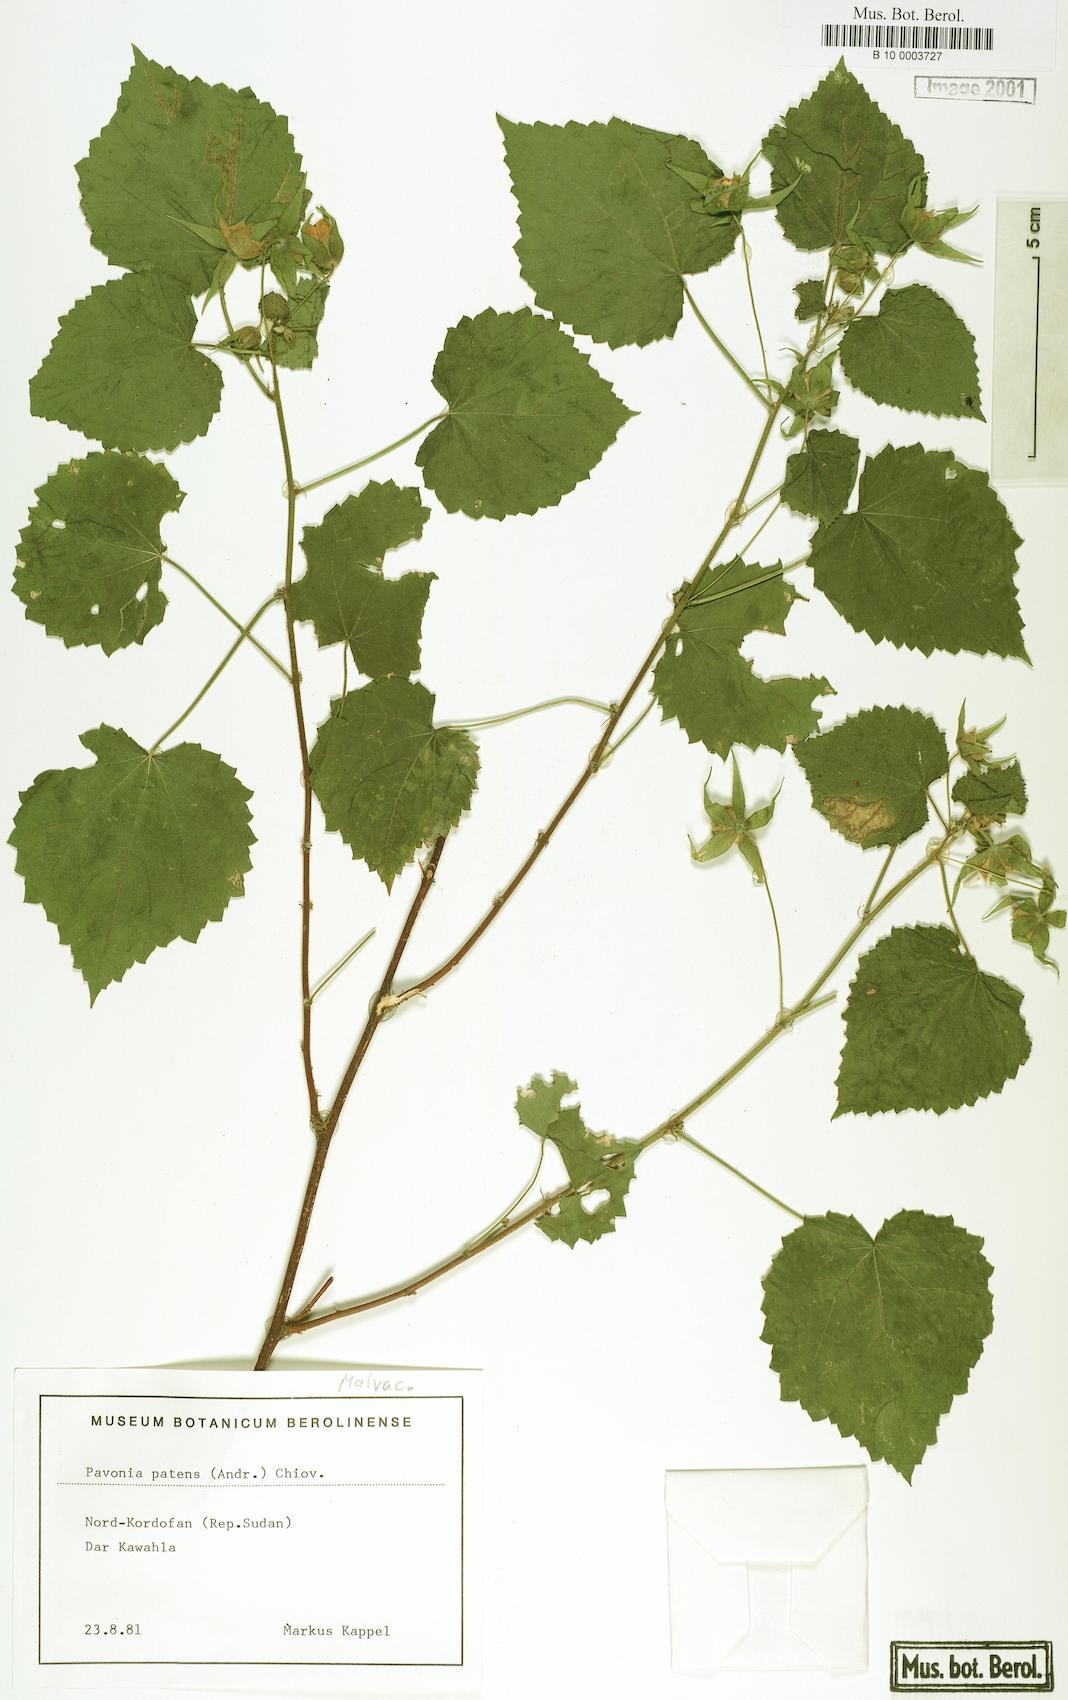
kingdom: Plantae
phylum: Tracheophyta
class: Magnoliopsida
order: Malvales
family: Malvaceae
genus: Abutilon
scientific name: Abutilon mauritianum
